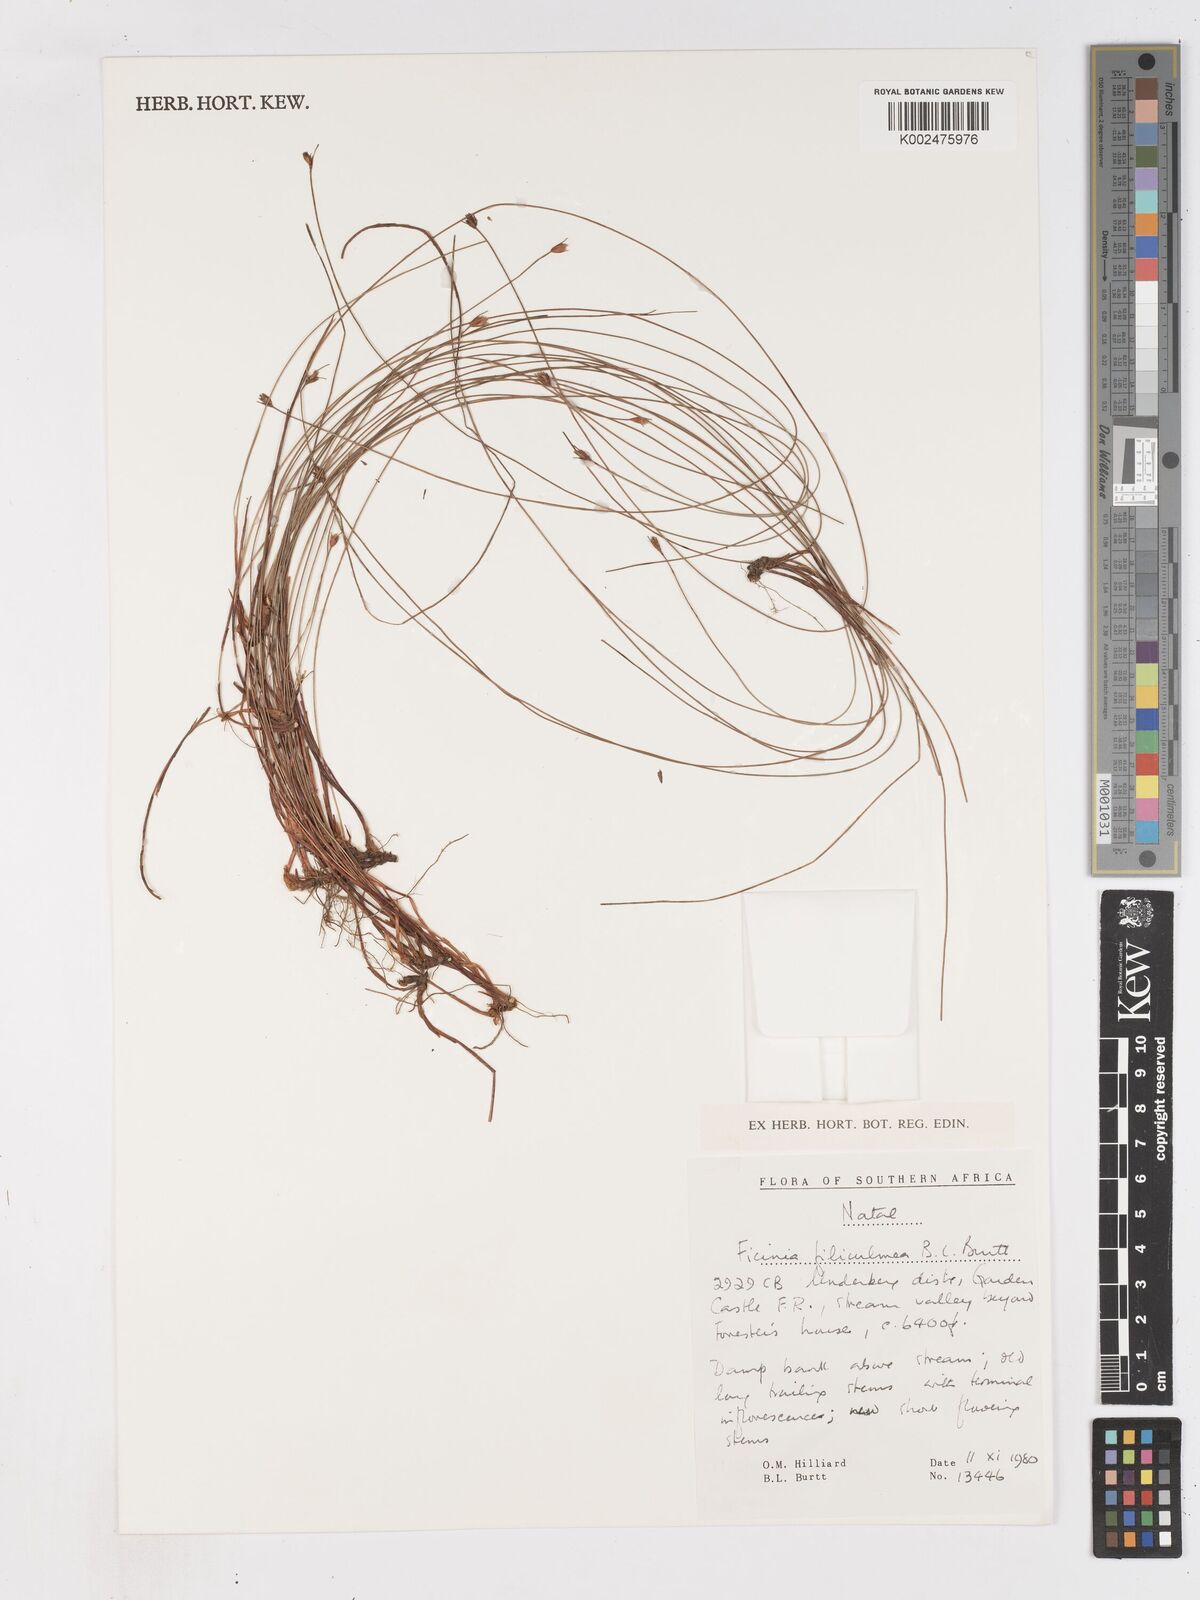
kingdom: Plantae
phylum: Tracheophyta
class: Liliopsida
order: Poales
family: Cyperaceae
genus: Ficinia
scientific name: Ficinia filiculmea
